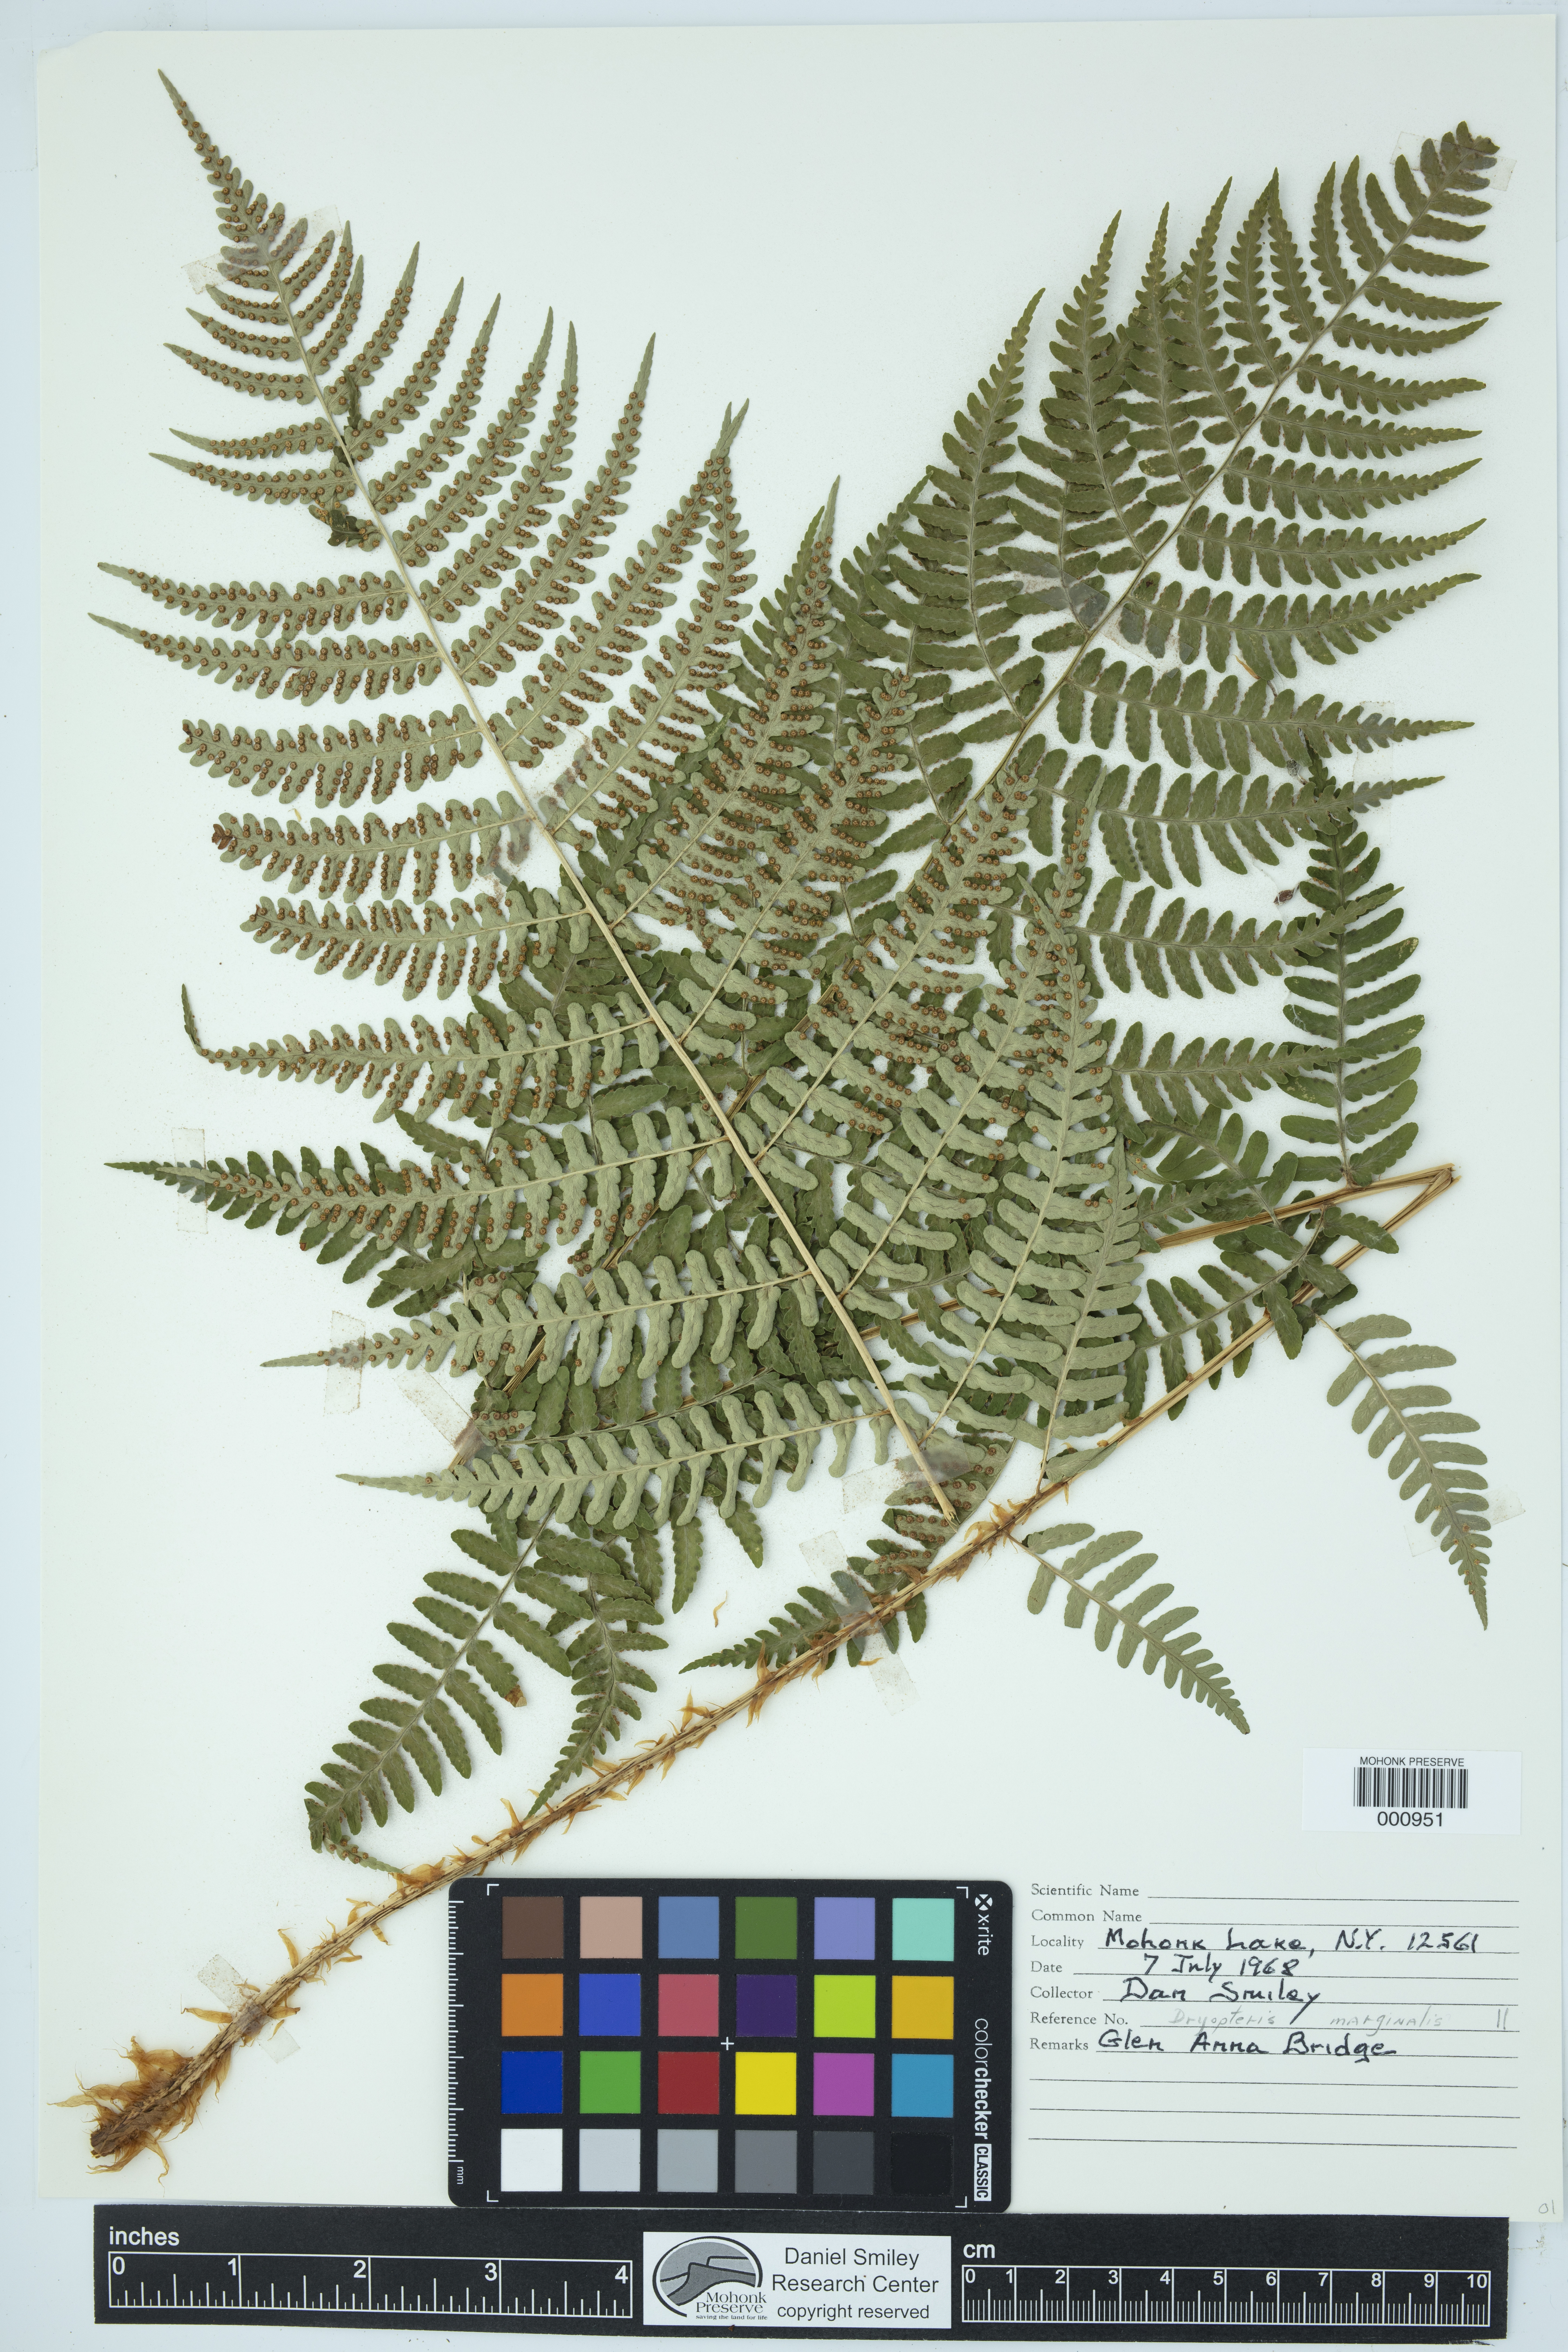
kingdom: Plantae
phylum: Tracheophyta
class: Polypodiopsida
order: Polypodiales
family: Dryopteridaceae
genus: Dryopteris
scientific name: Dryopteris marginalis
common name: Marginal wood fern
